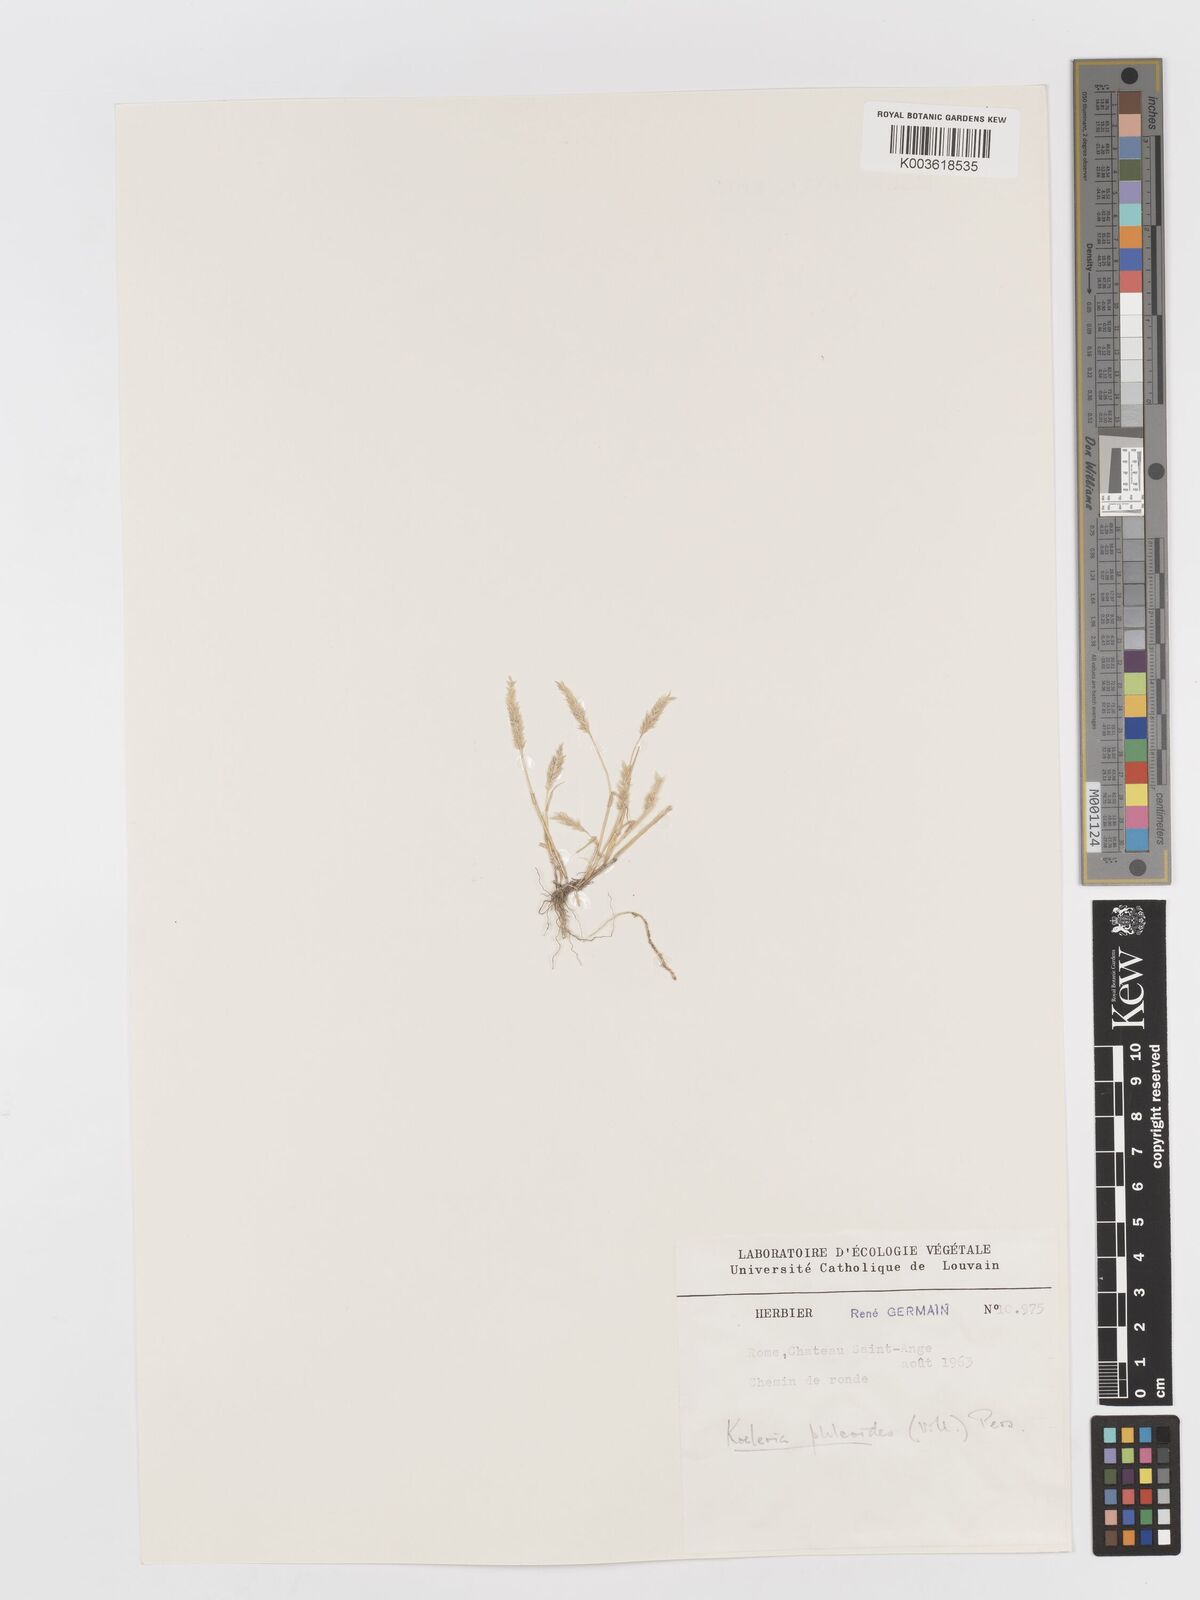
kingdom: Plantae
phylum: Tracheophyta
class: Liliopsida
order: Poales
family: Poaceae
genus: Rostraria
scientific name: Rostraria cristata
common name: Mediterranean hair-grass
